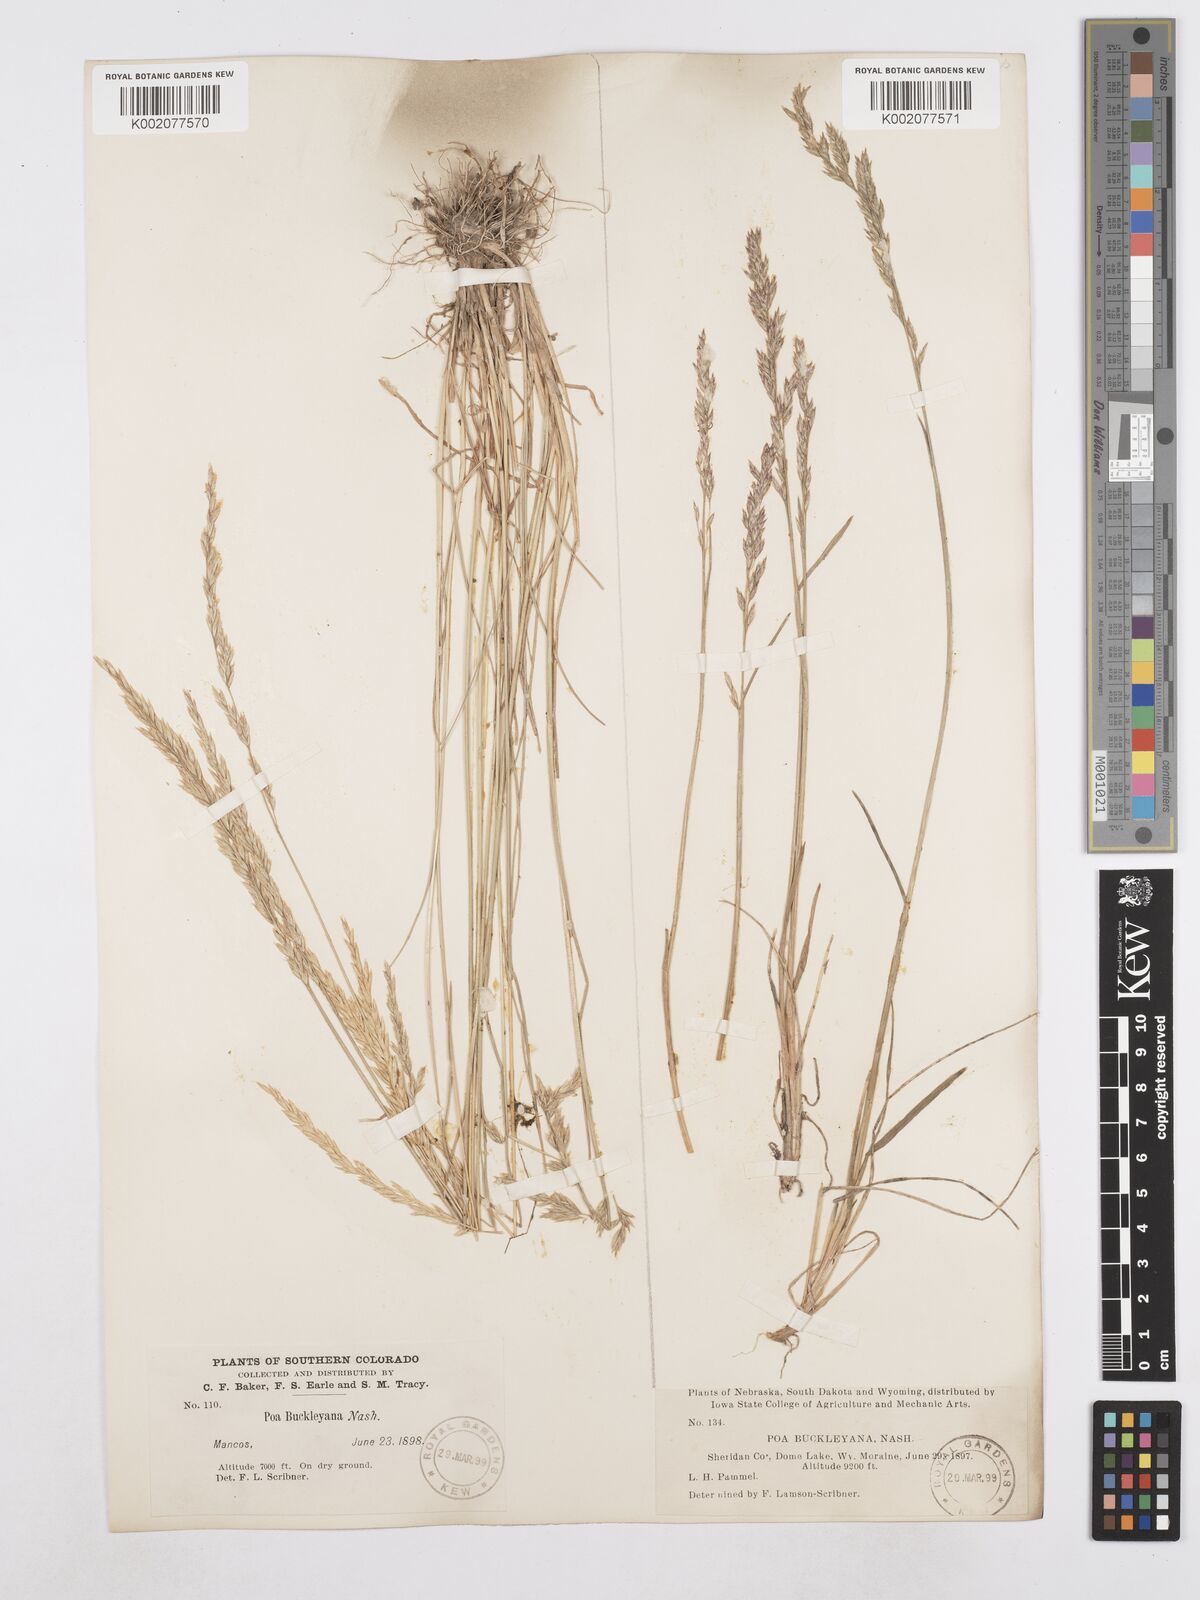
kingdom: Plantae
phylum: Tracheophyta
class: Liliopsida
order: Poales
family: Poaceae
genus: Poa
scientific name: Poa secunda
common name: Sandberg bluegrass
